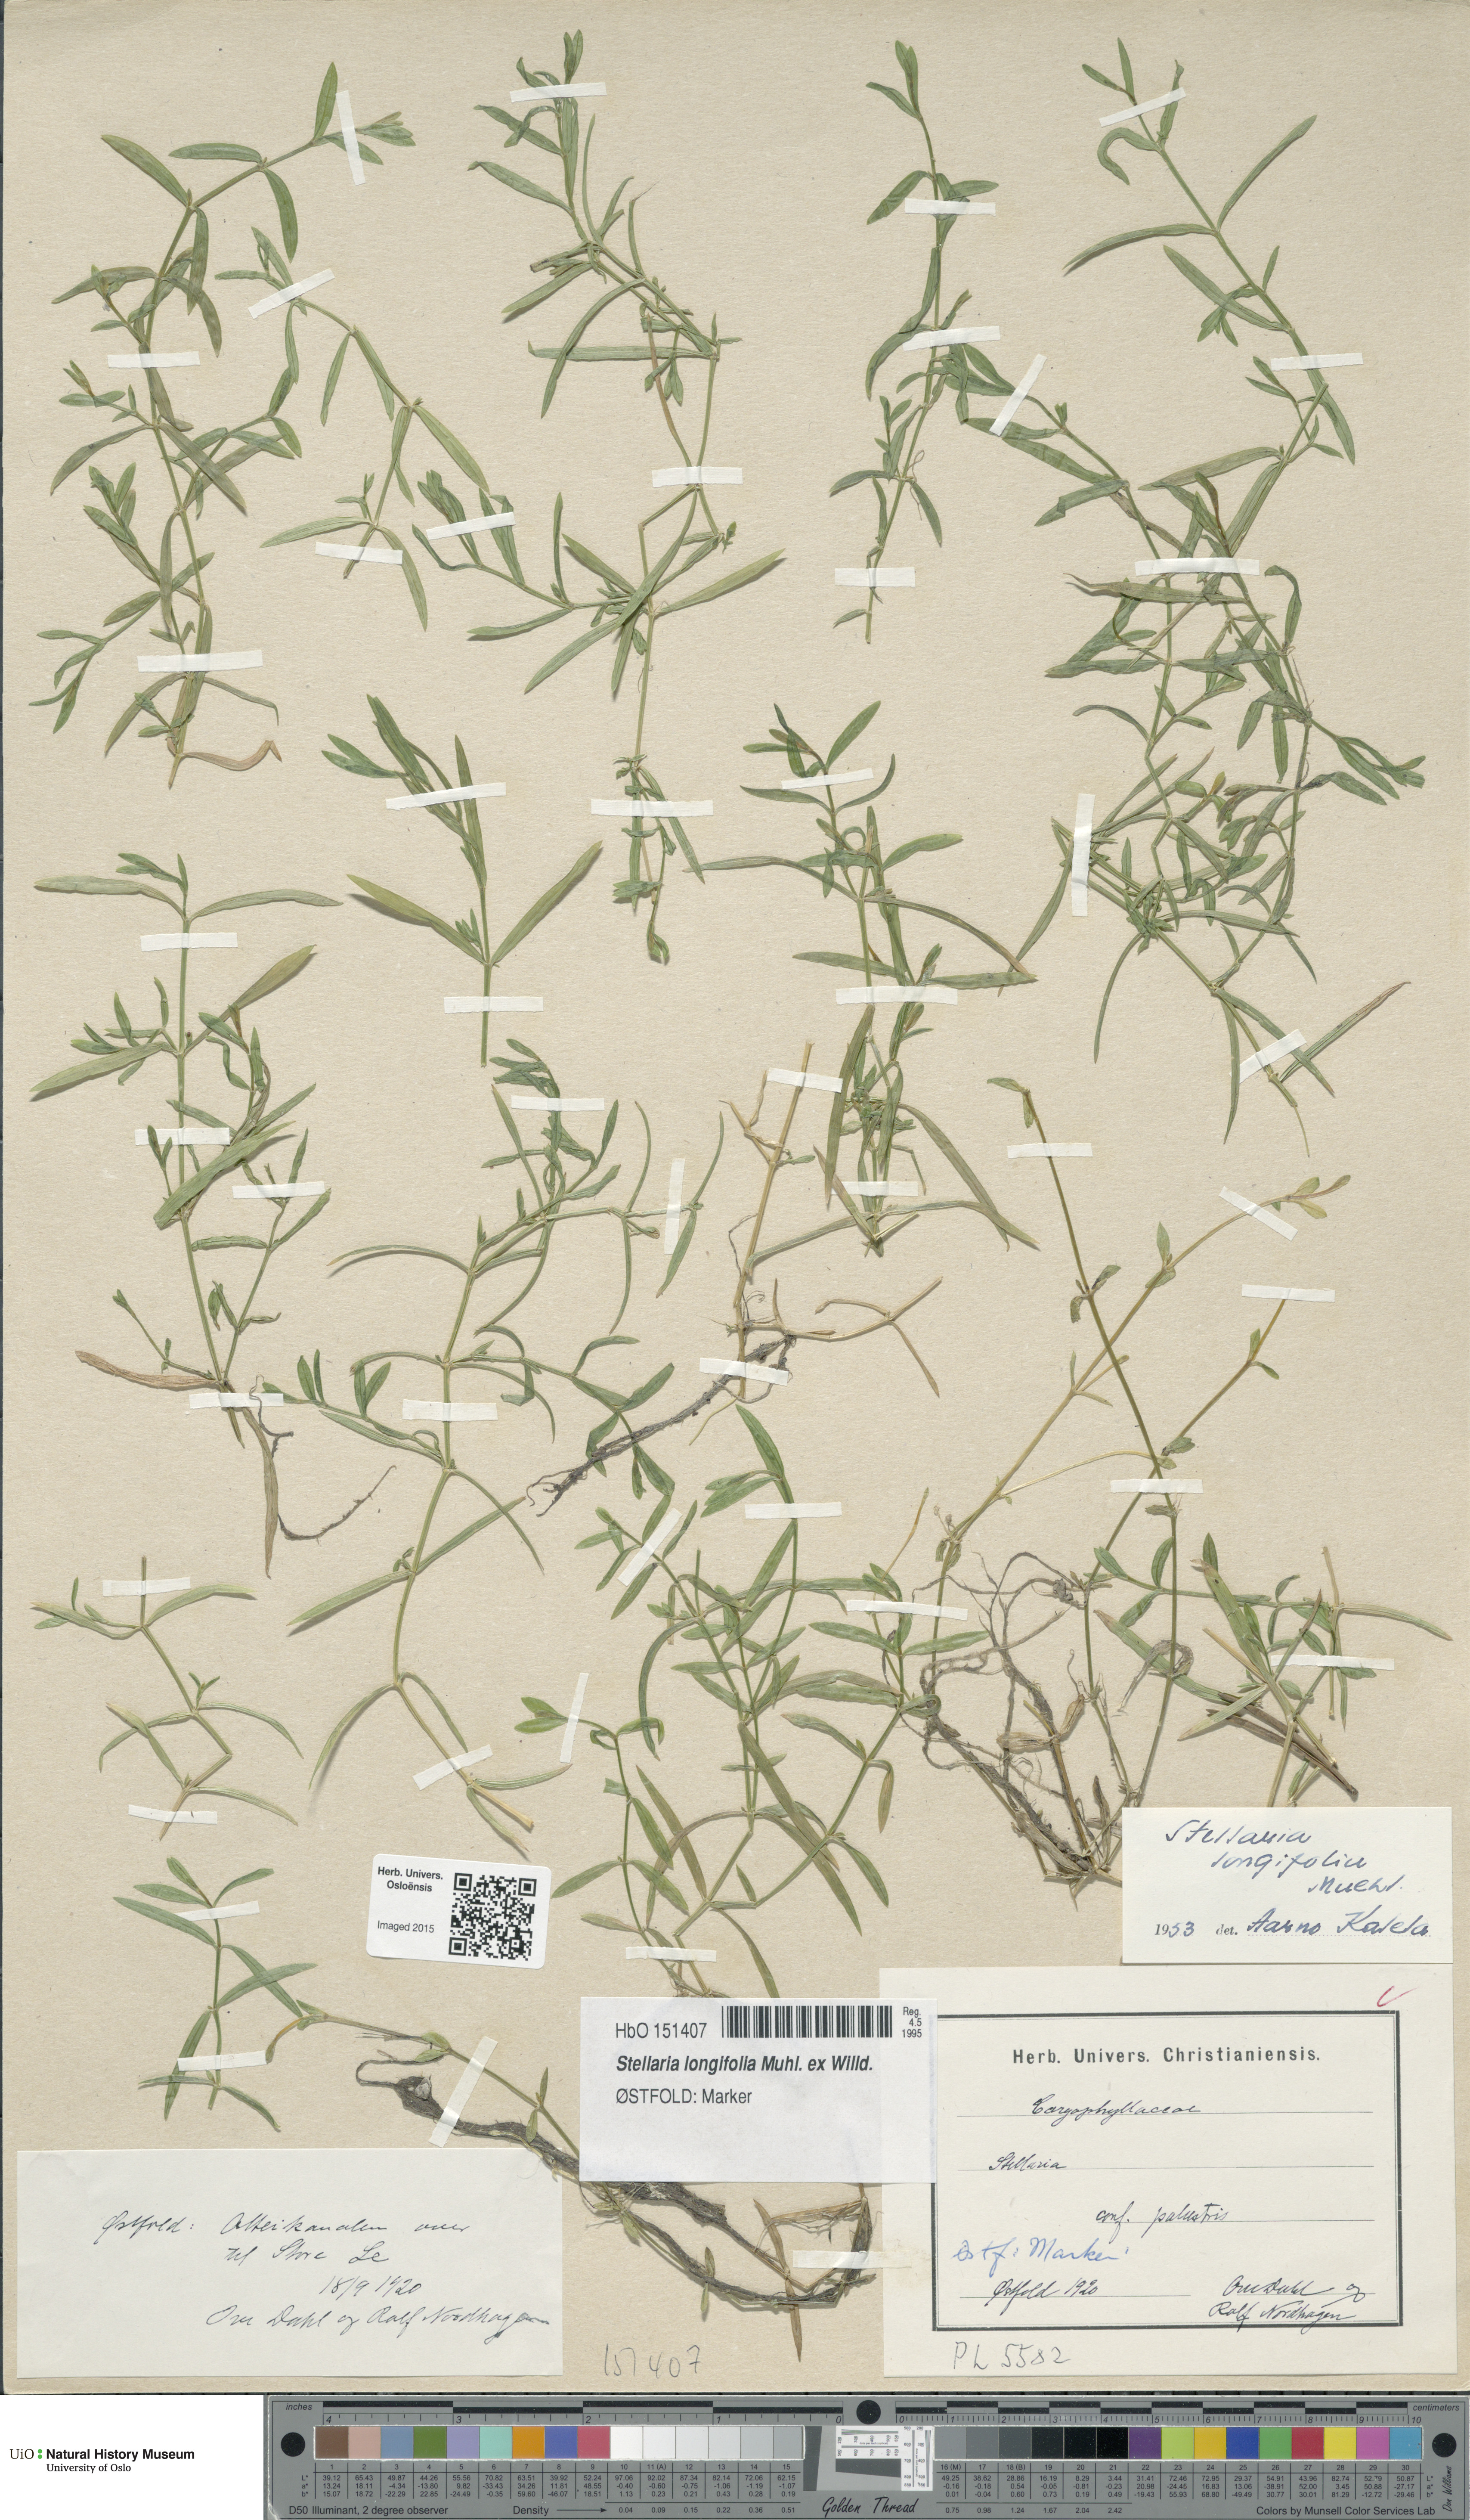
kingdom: Plantae
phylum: Tracheophyta
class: Magnoliopsida
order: Caryophyllales
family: Caryophyllaceae
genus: Stellaria
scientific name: Stellaria longifolia
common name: Long-leaved chickweed
